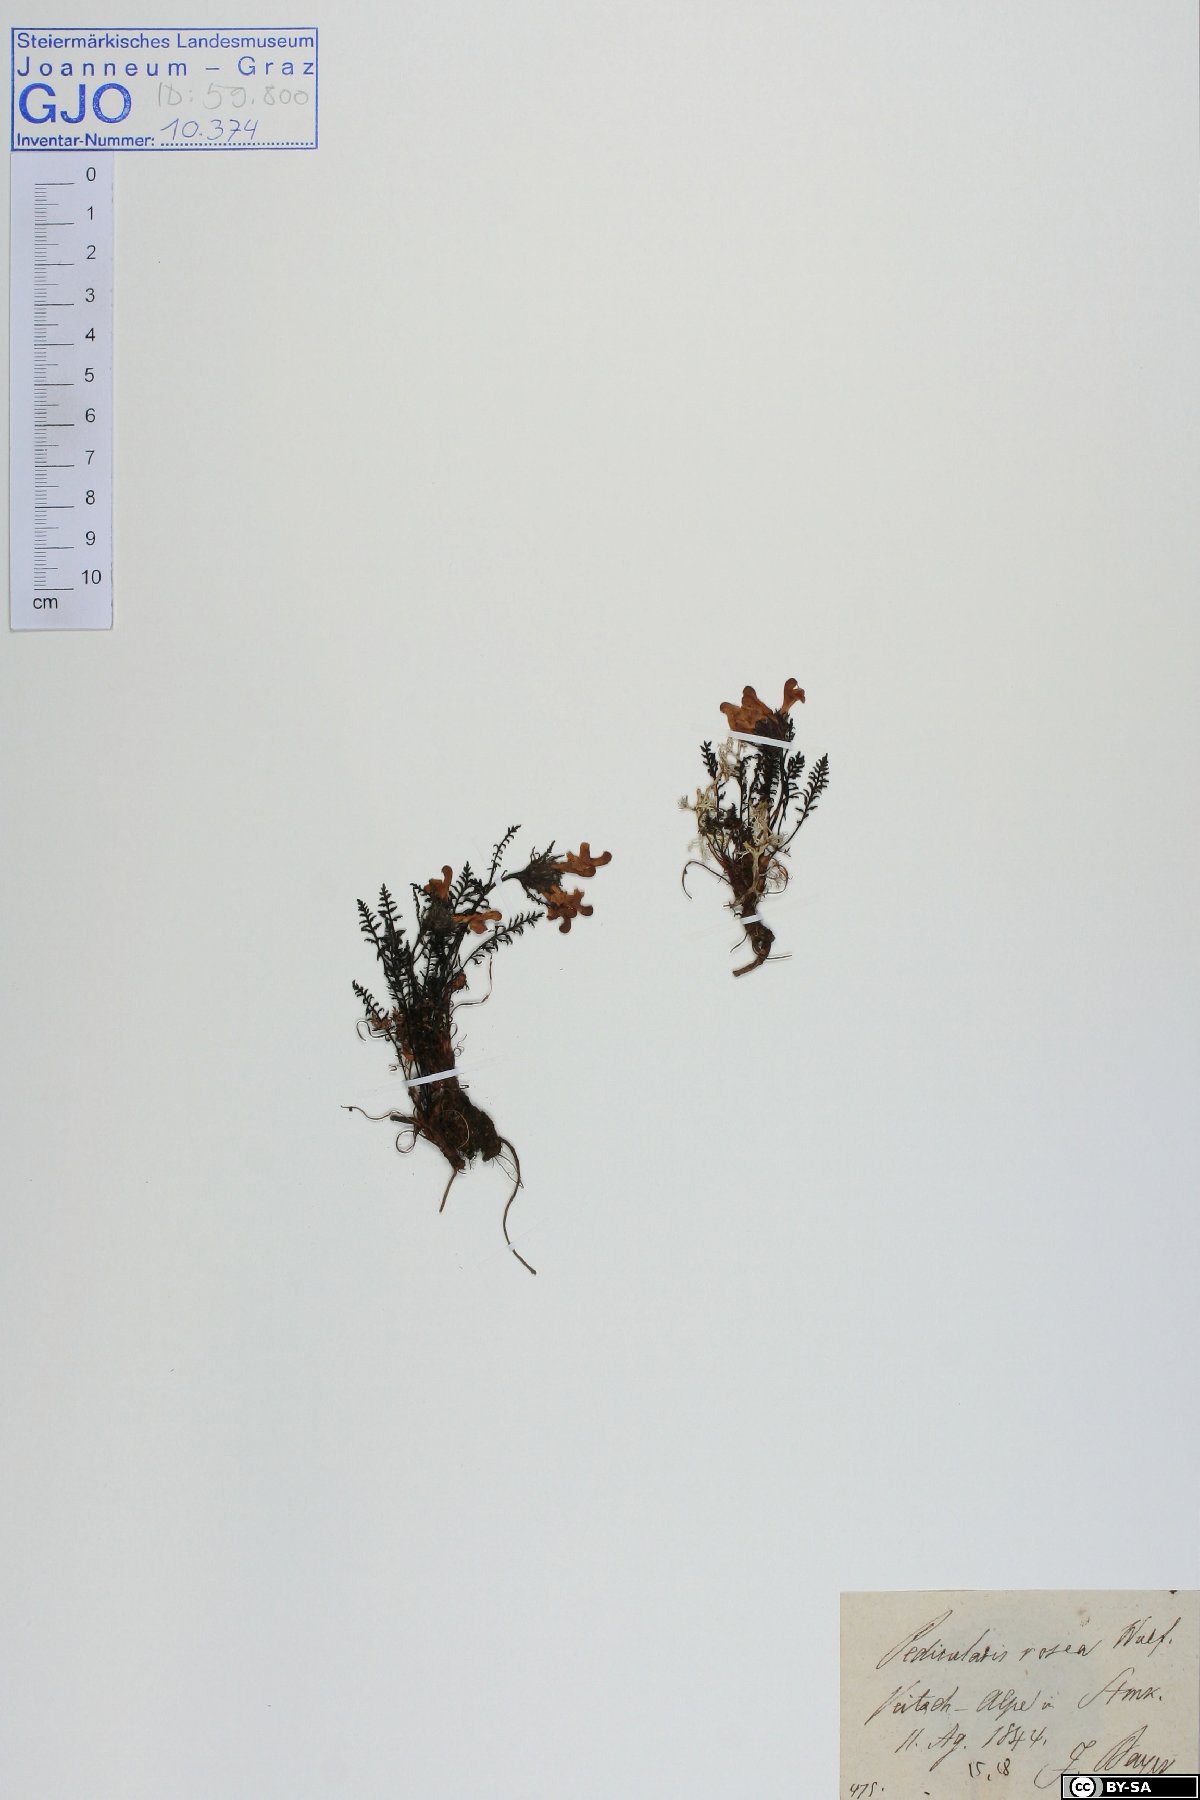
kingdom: Plantae
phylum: Tracheophyta
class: Magnoliopsida
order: Lamiales
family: Orobanchaceae
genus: Pedicularis
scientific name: Pedicularis rosea
